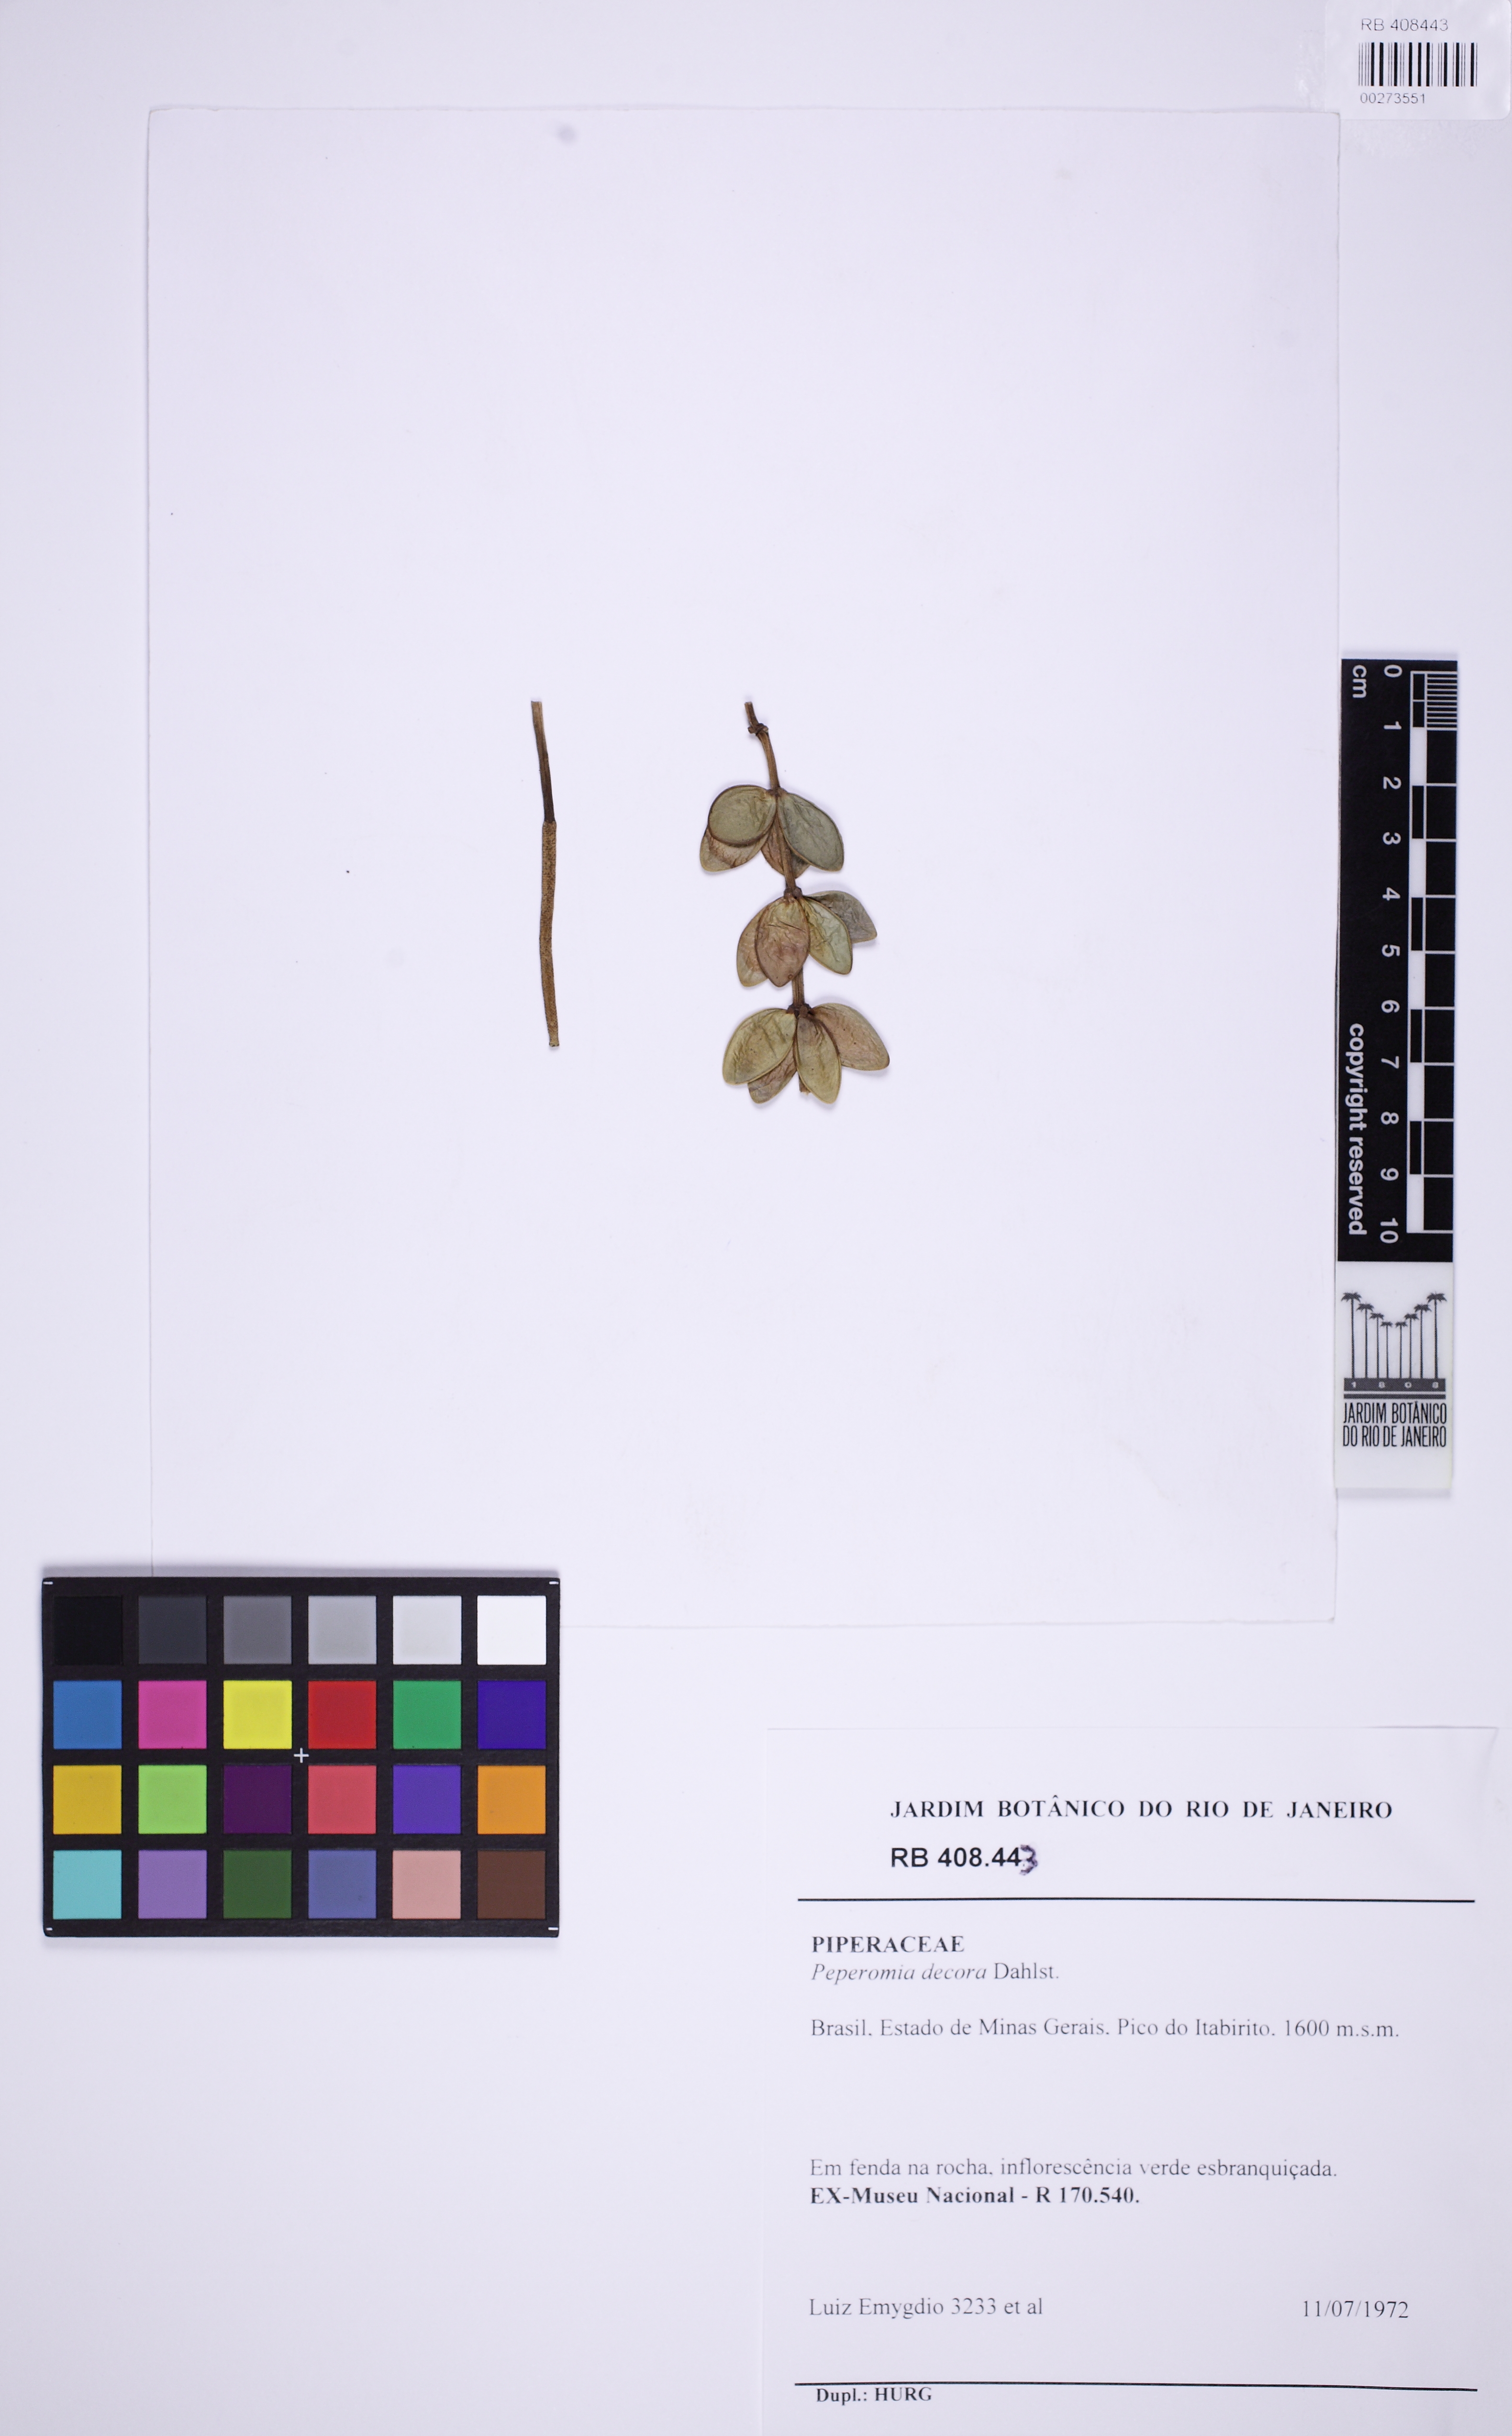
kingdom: Plantae
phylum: Tracheophyta
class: Magnoliopsida
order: Piperales
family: Piperaceae
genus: Peperomia
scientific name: Peperomia decora
